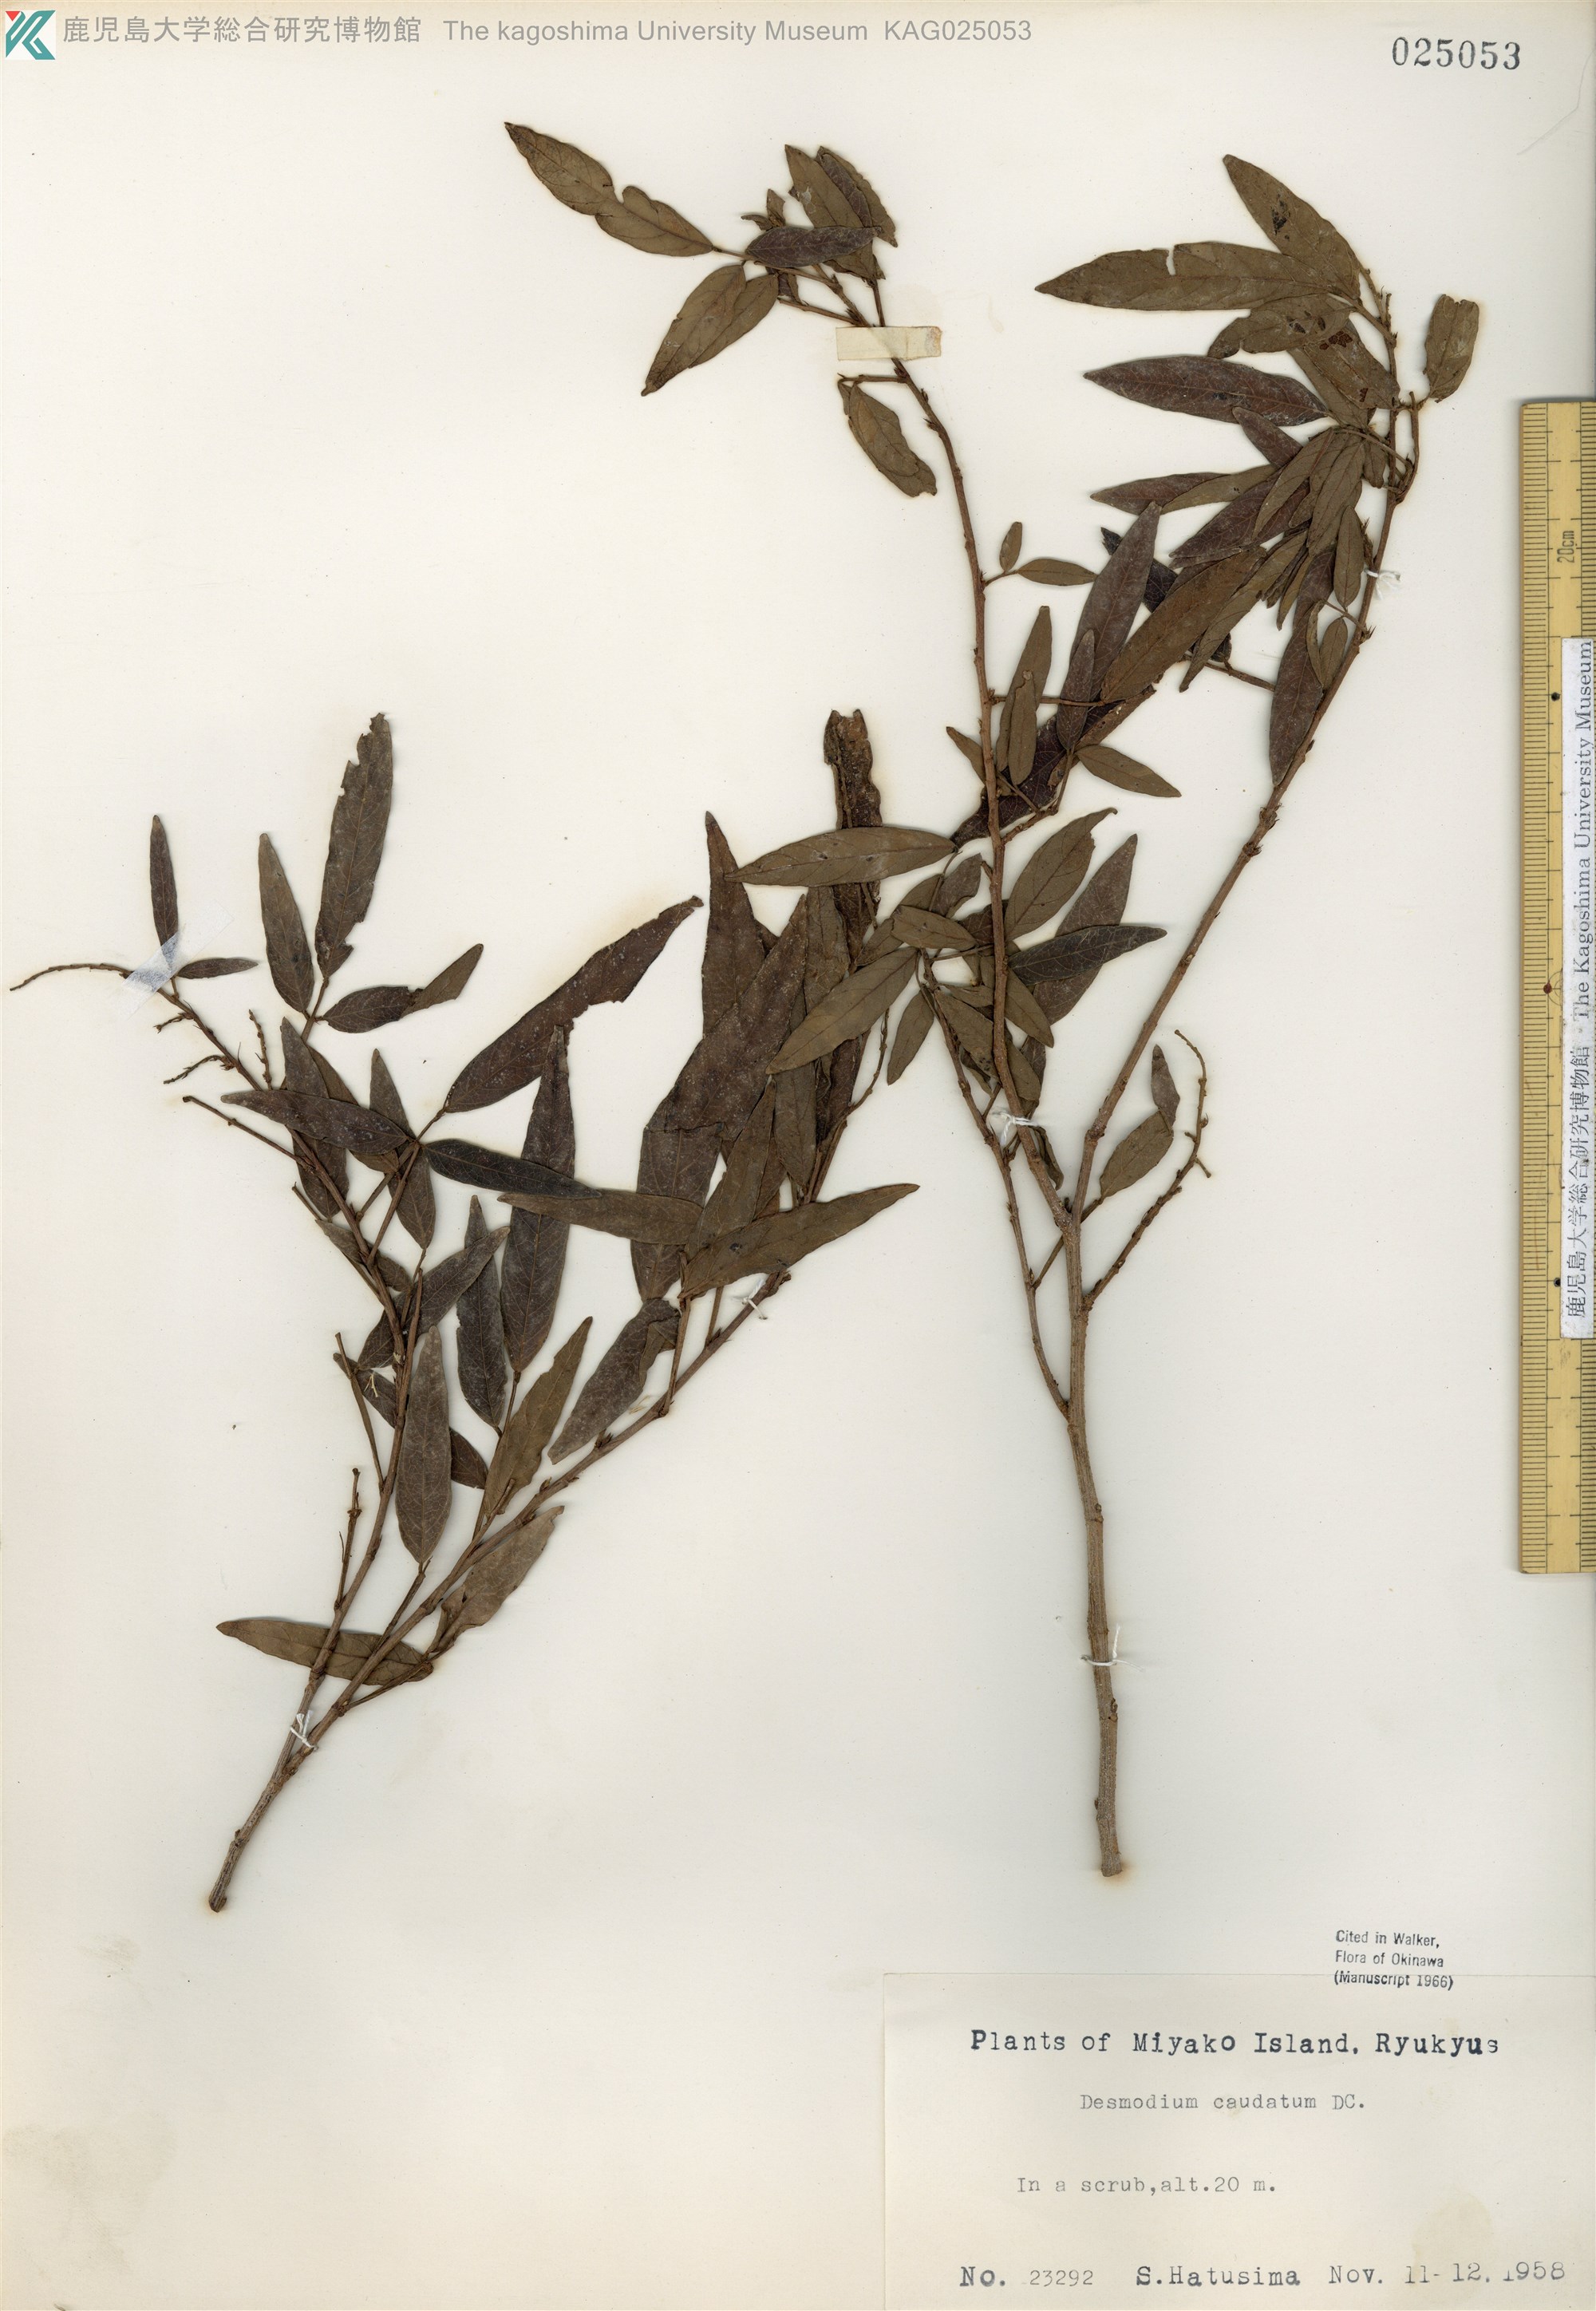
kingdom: Plantae
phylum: Tracheophyta
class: Magnoliopsida
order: Fabales
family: Fabaceae
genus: Ohwia
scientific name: Ohwia caudata
